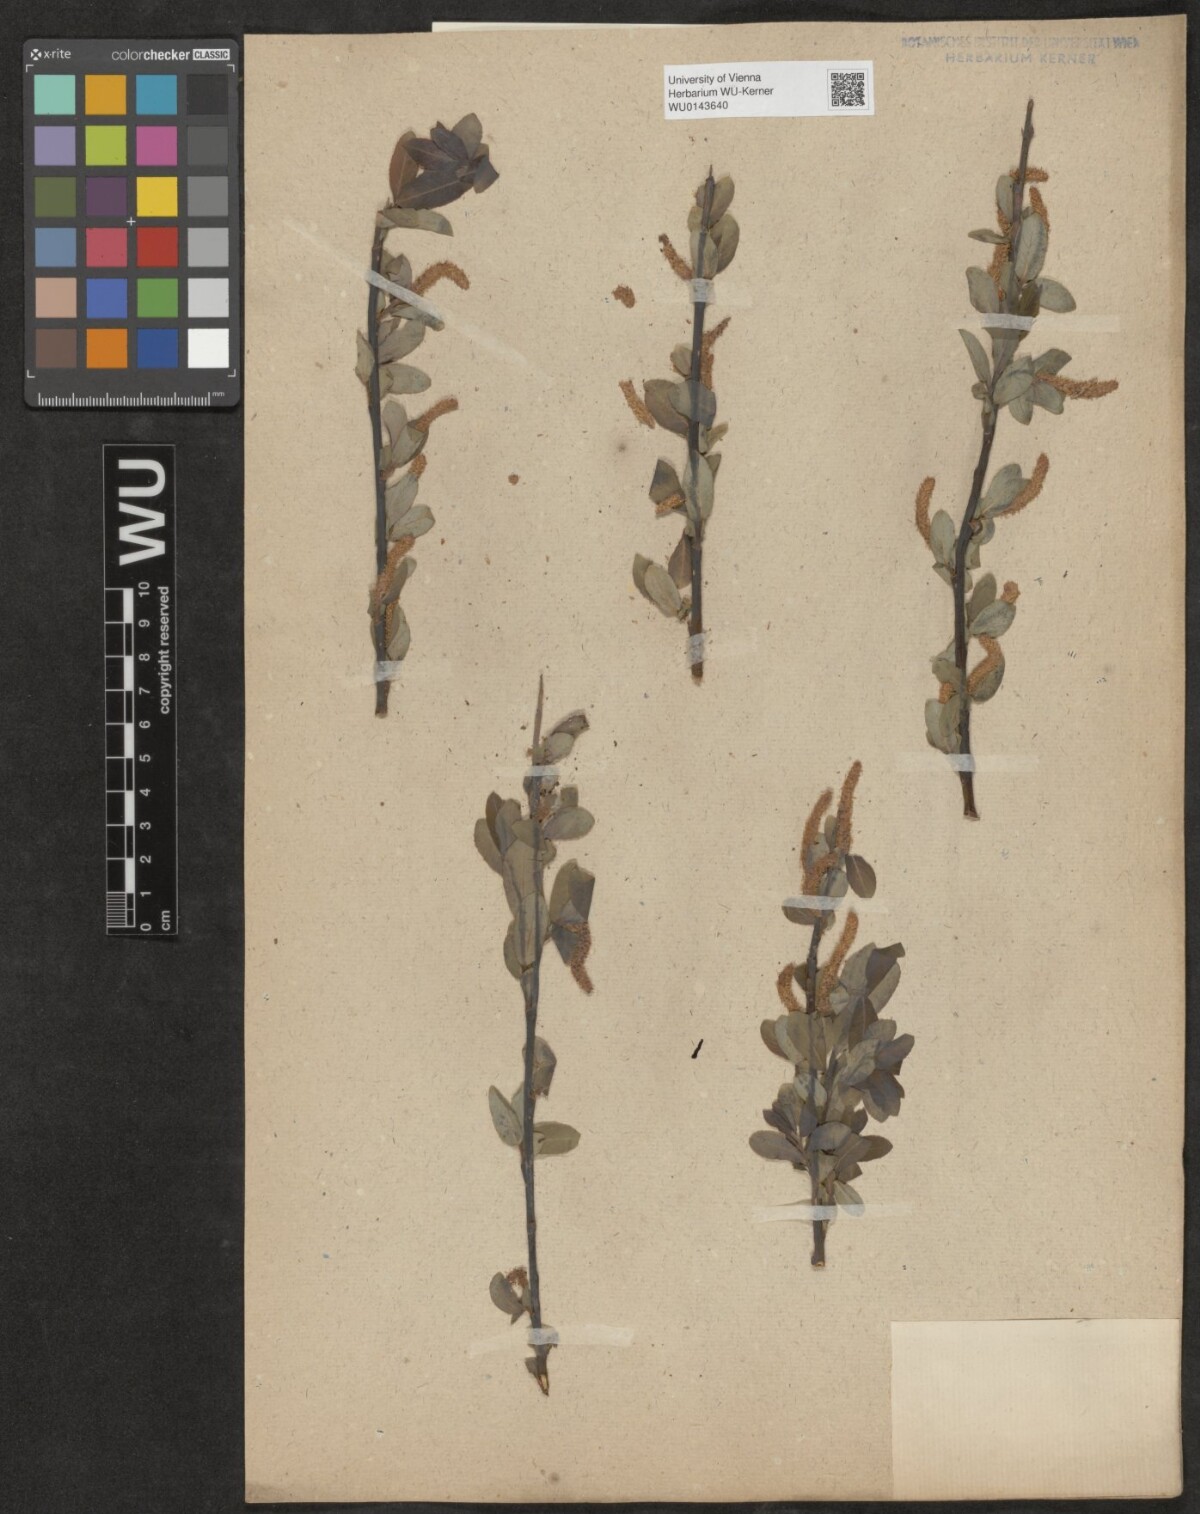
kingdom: Plantae
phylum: Tracheophyta
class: Magnoliopsida
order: Malpighiales
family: Salicaceae
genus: Salix
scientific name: Salix
